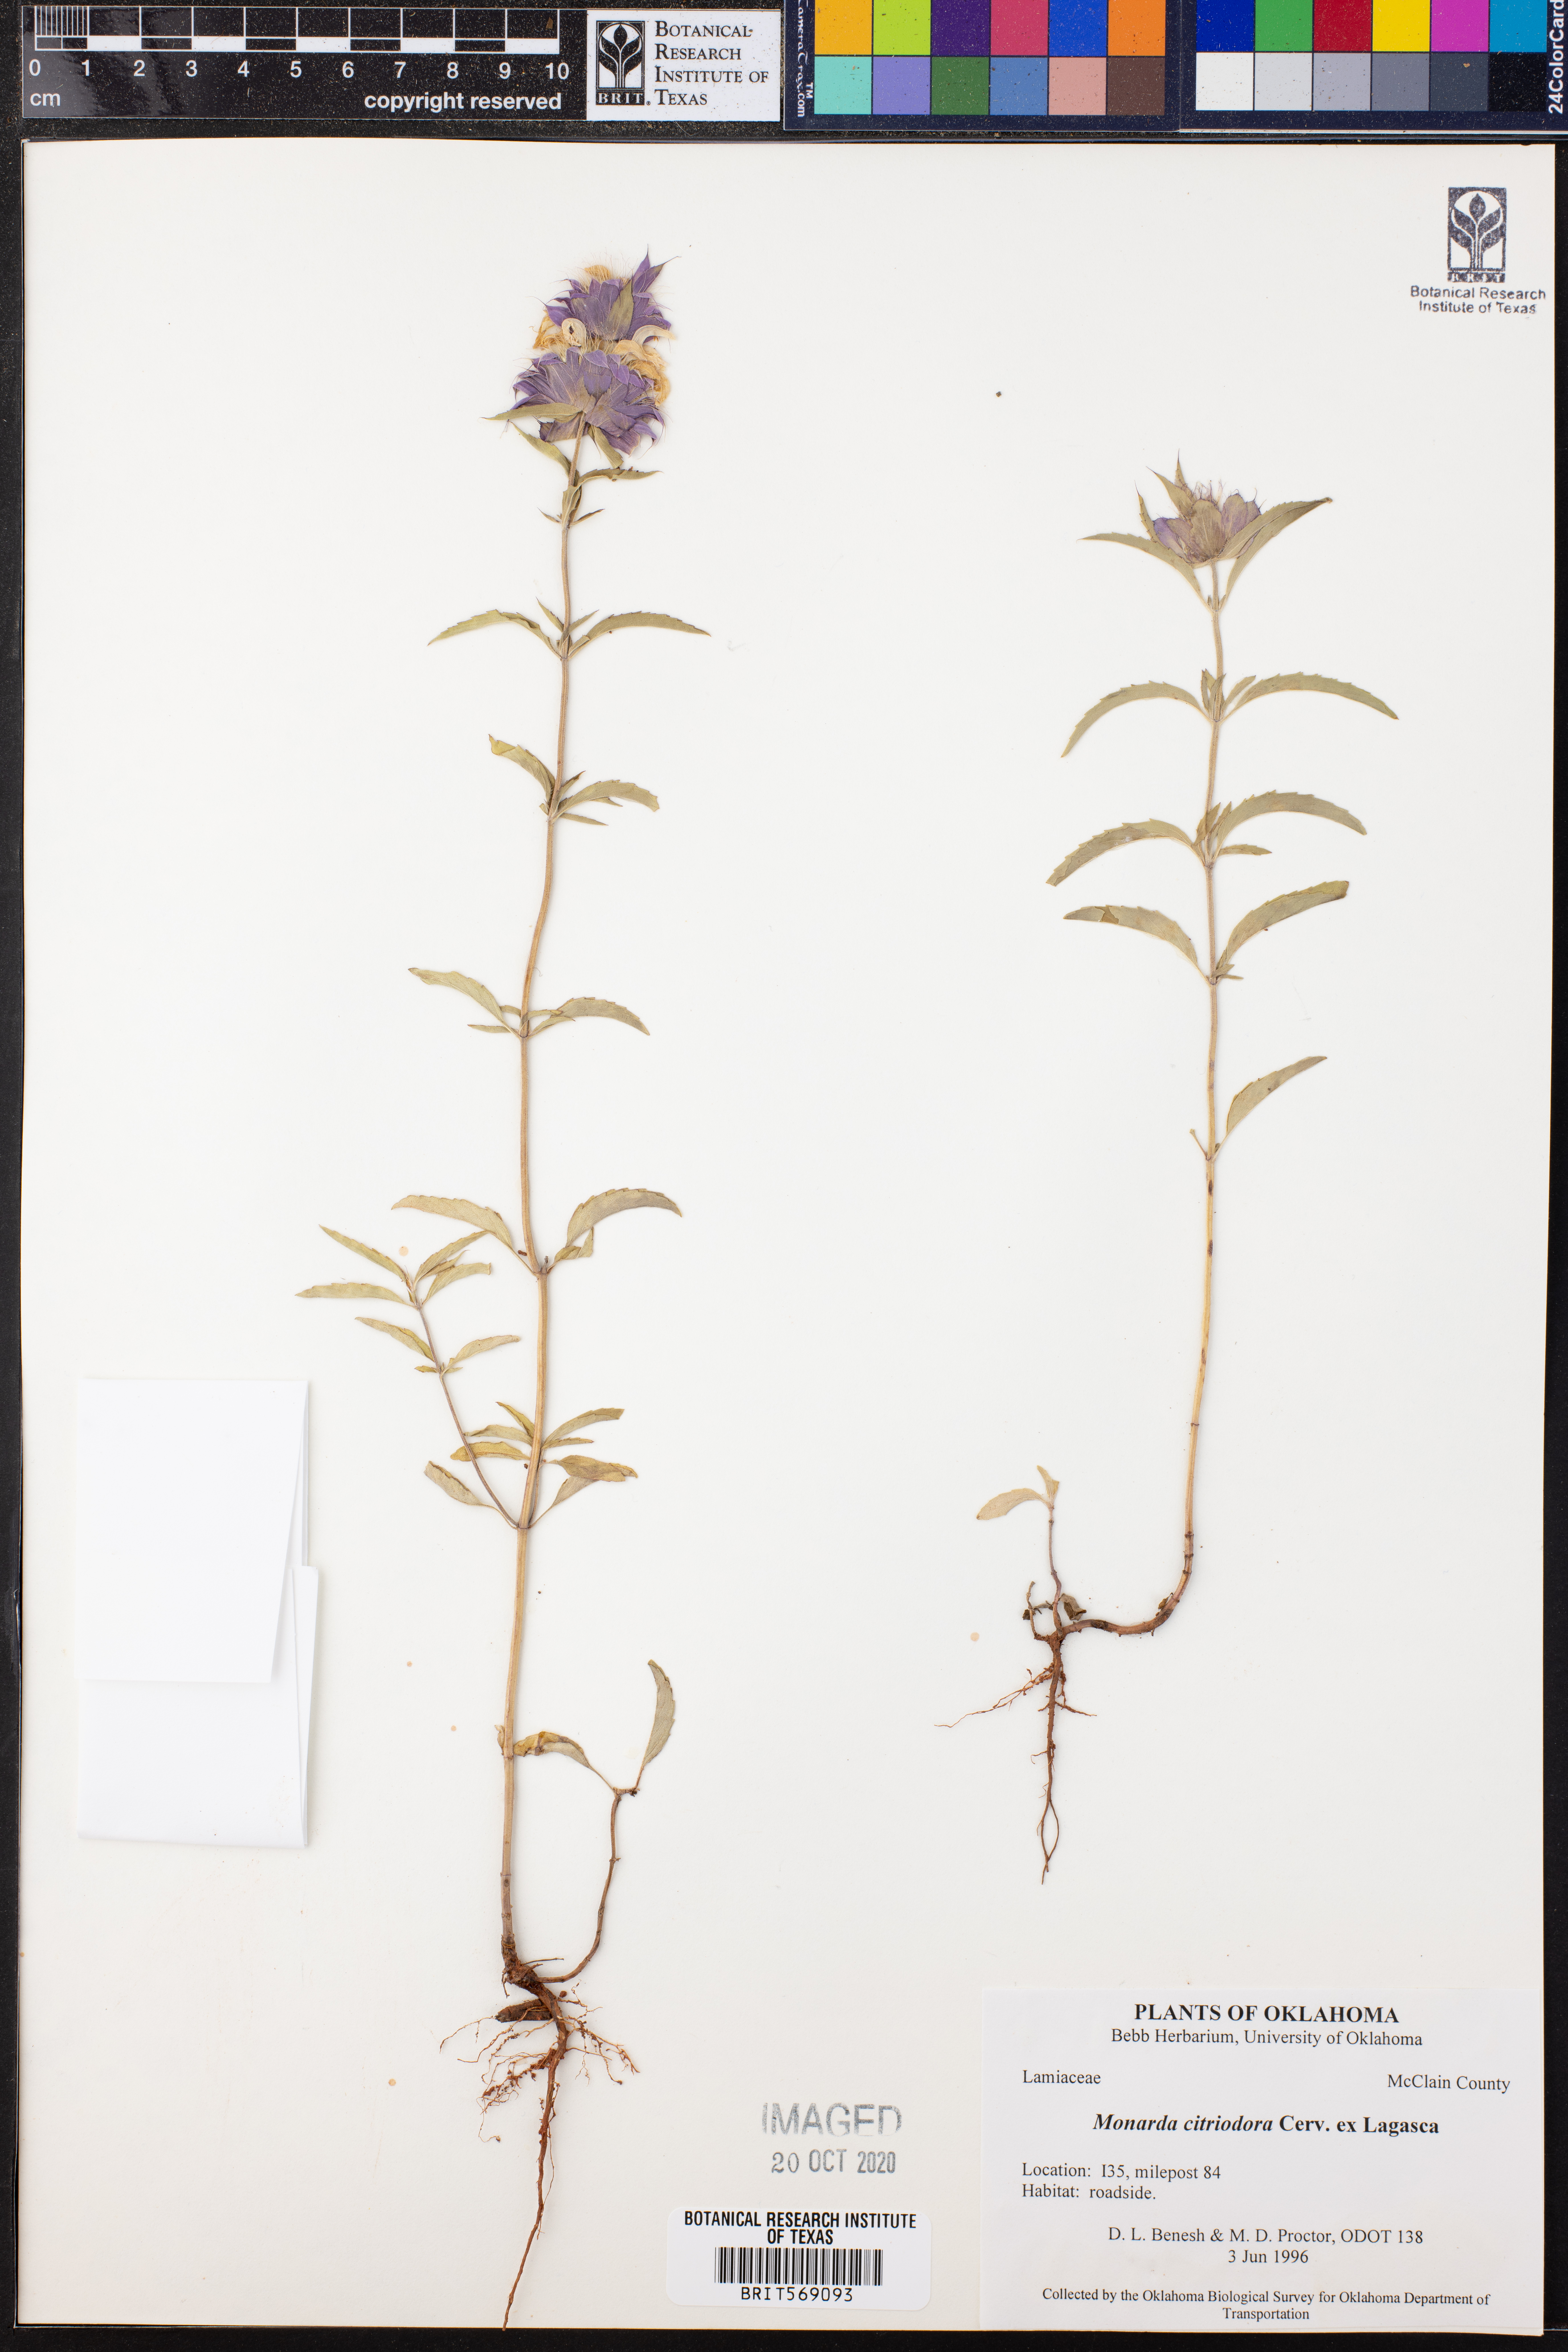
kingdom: Plantae
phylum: Tracheophyta
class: Magnoliopsida
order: Lamiales
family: Lamiaceae
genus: Monarda
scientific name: Monarda citriodora
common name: Lemon beebalm
